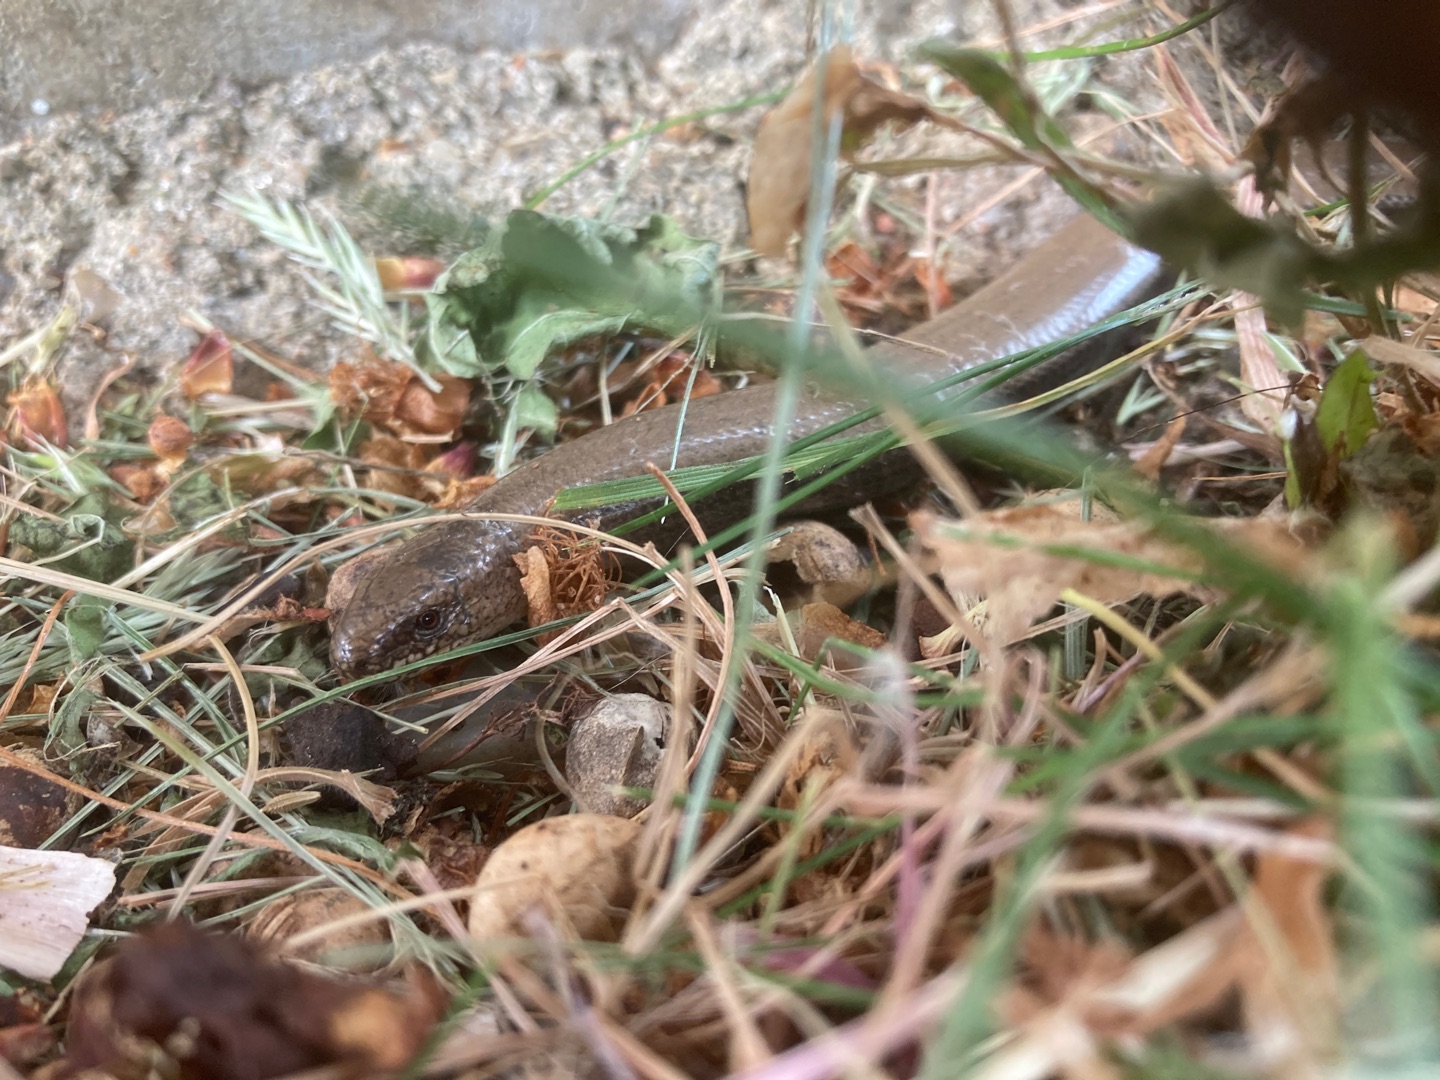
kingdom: Animalia
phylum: Chordata
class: Squamata
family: Anguidae
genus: Anguis
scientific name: Anguis fragilis
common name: Stålorm
